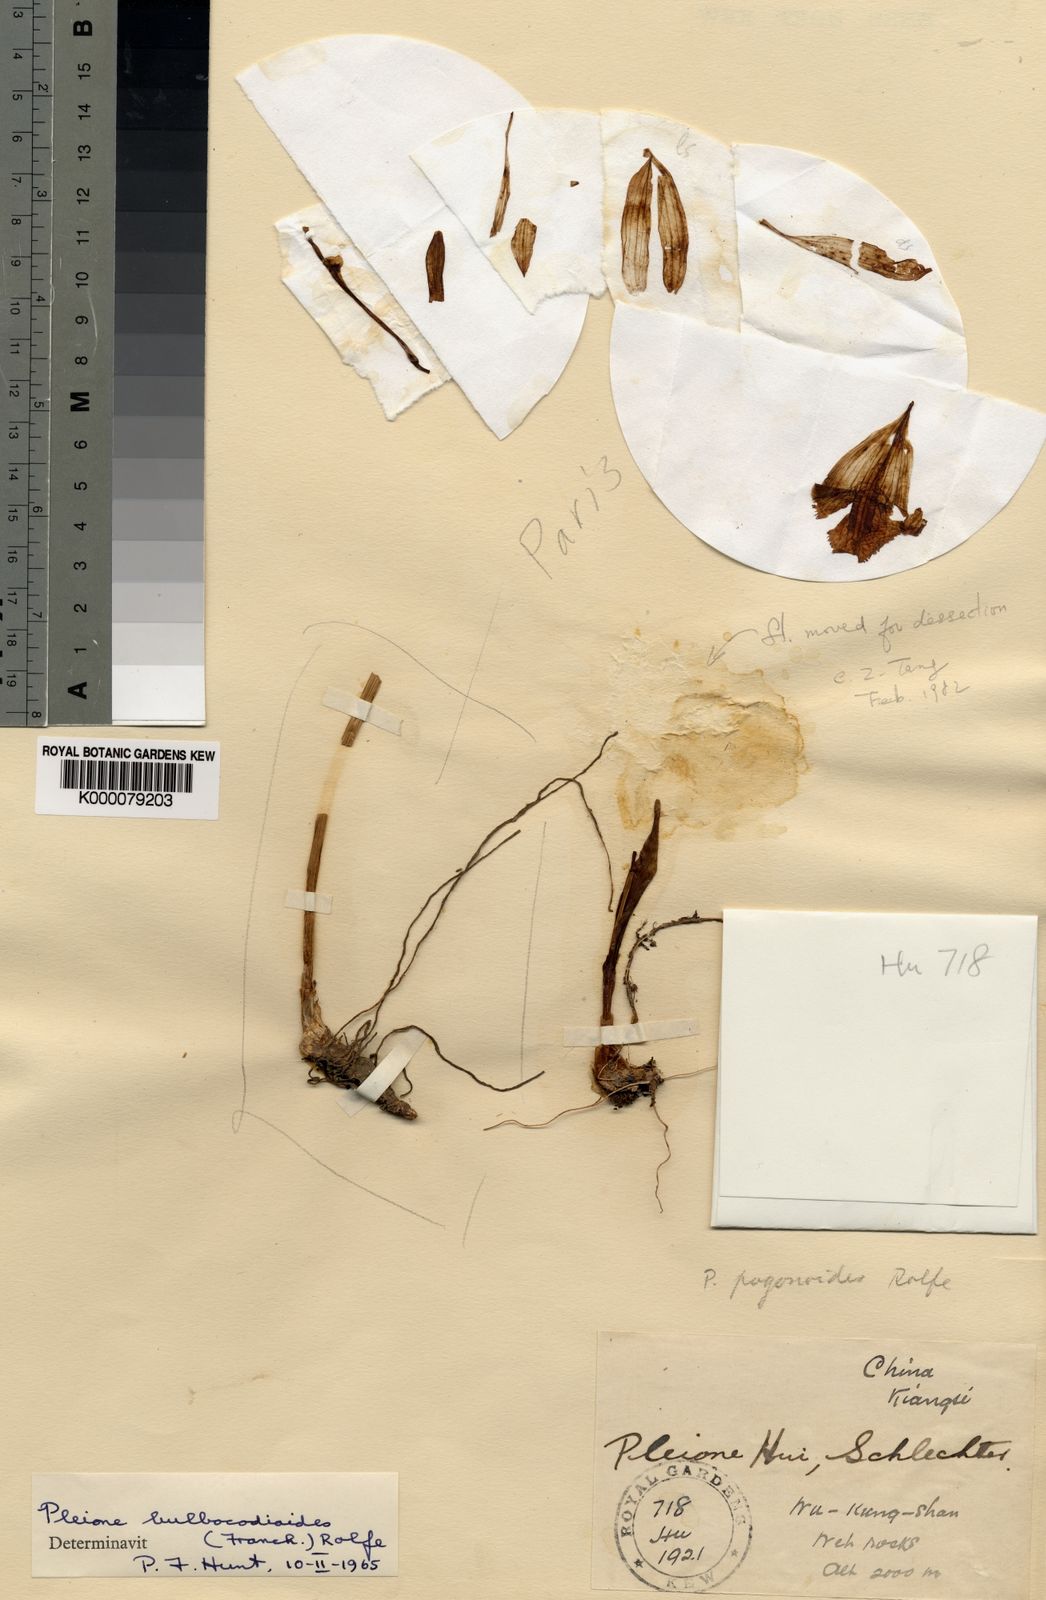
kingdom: Plantae
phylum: Tracheophyta
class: Liliopsida
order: Asparagales
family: Orchidaceae
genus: Pleione
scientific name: Pleione formosana
